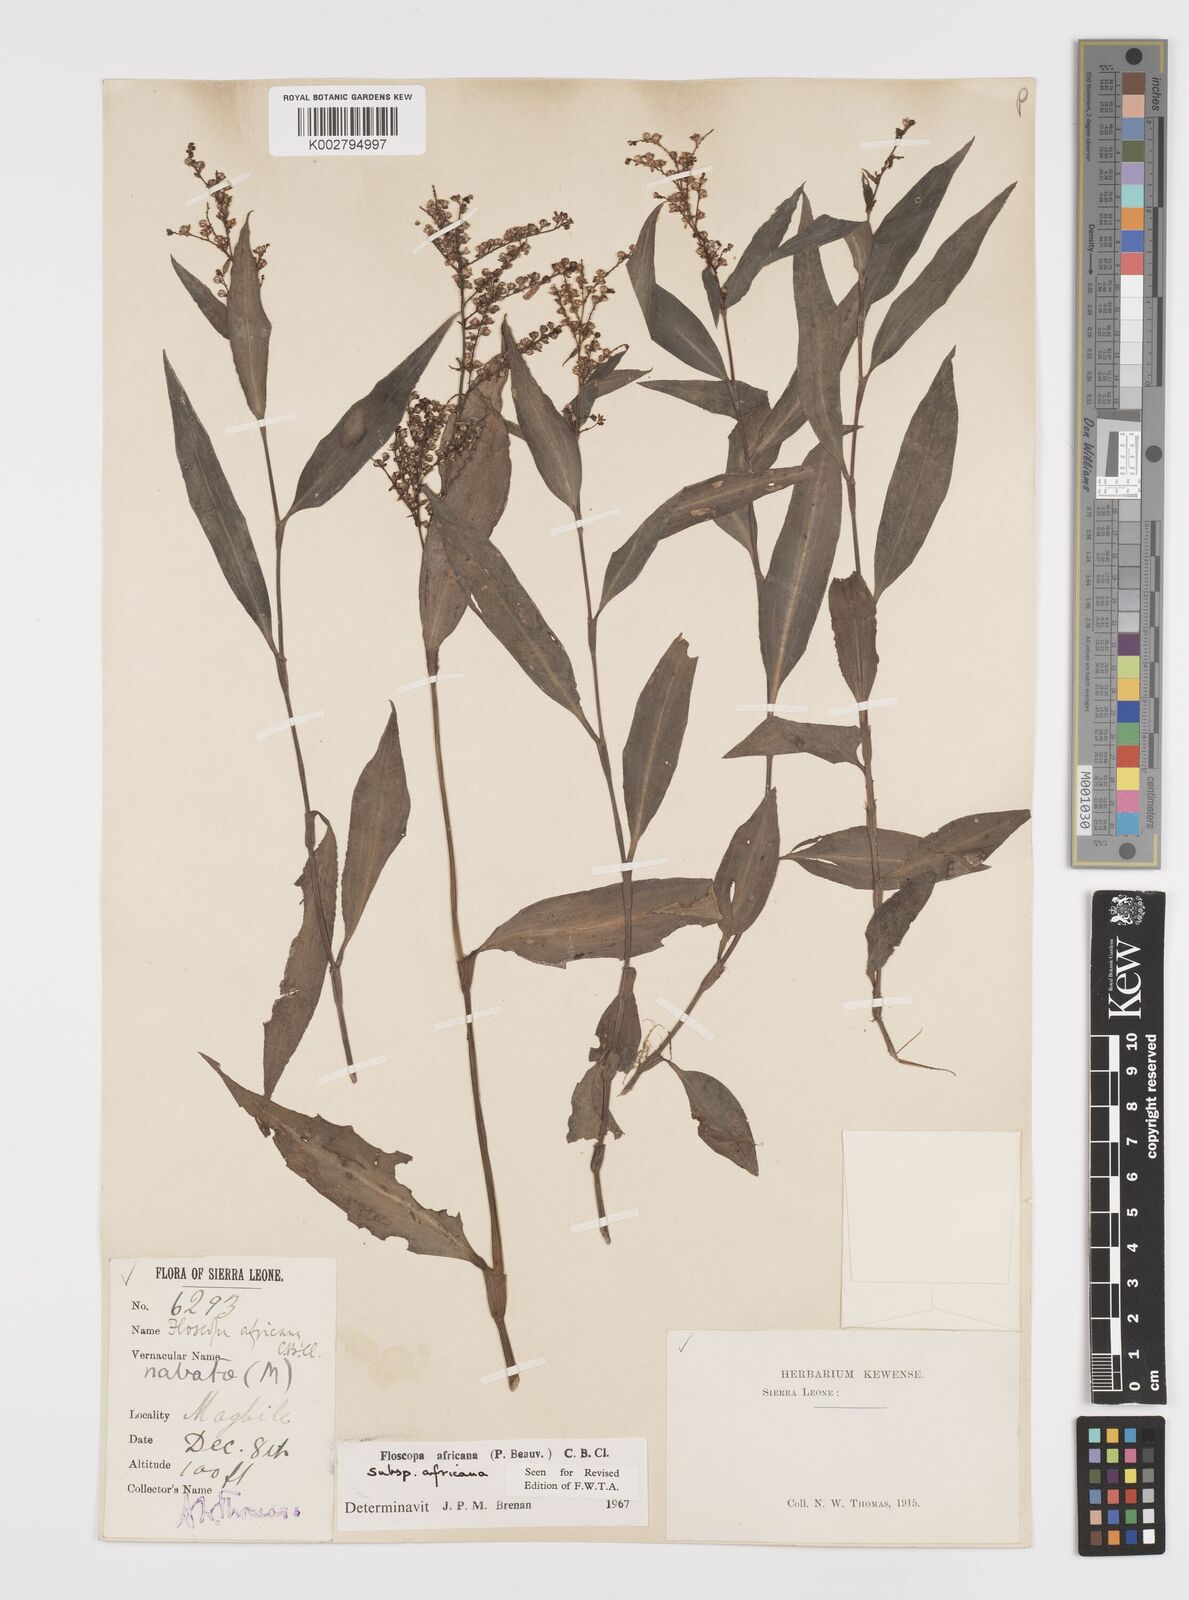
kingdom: Plantae
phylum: Tracheophyta
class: Liliopsida
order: Commelinales
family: Commelinaceae
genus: Floscopa
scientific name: Floscopa africana
